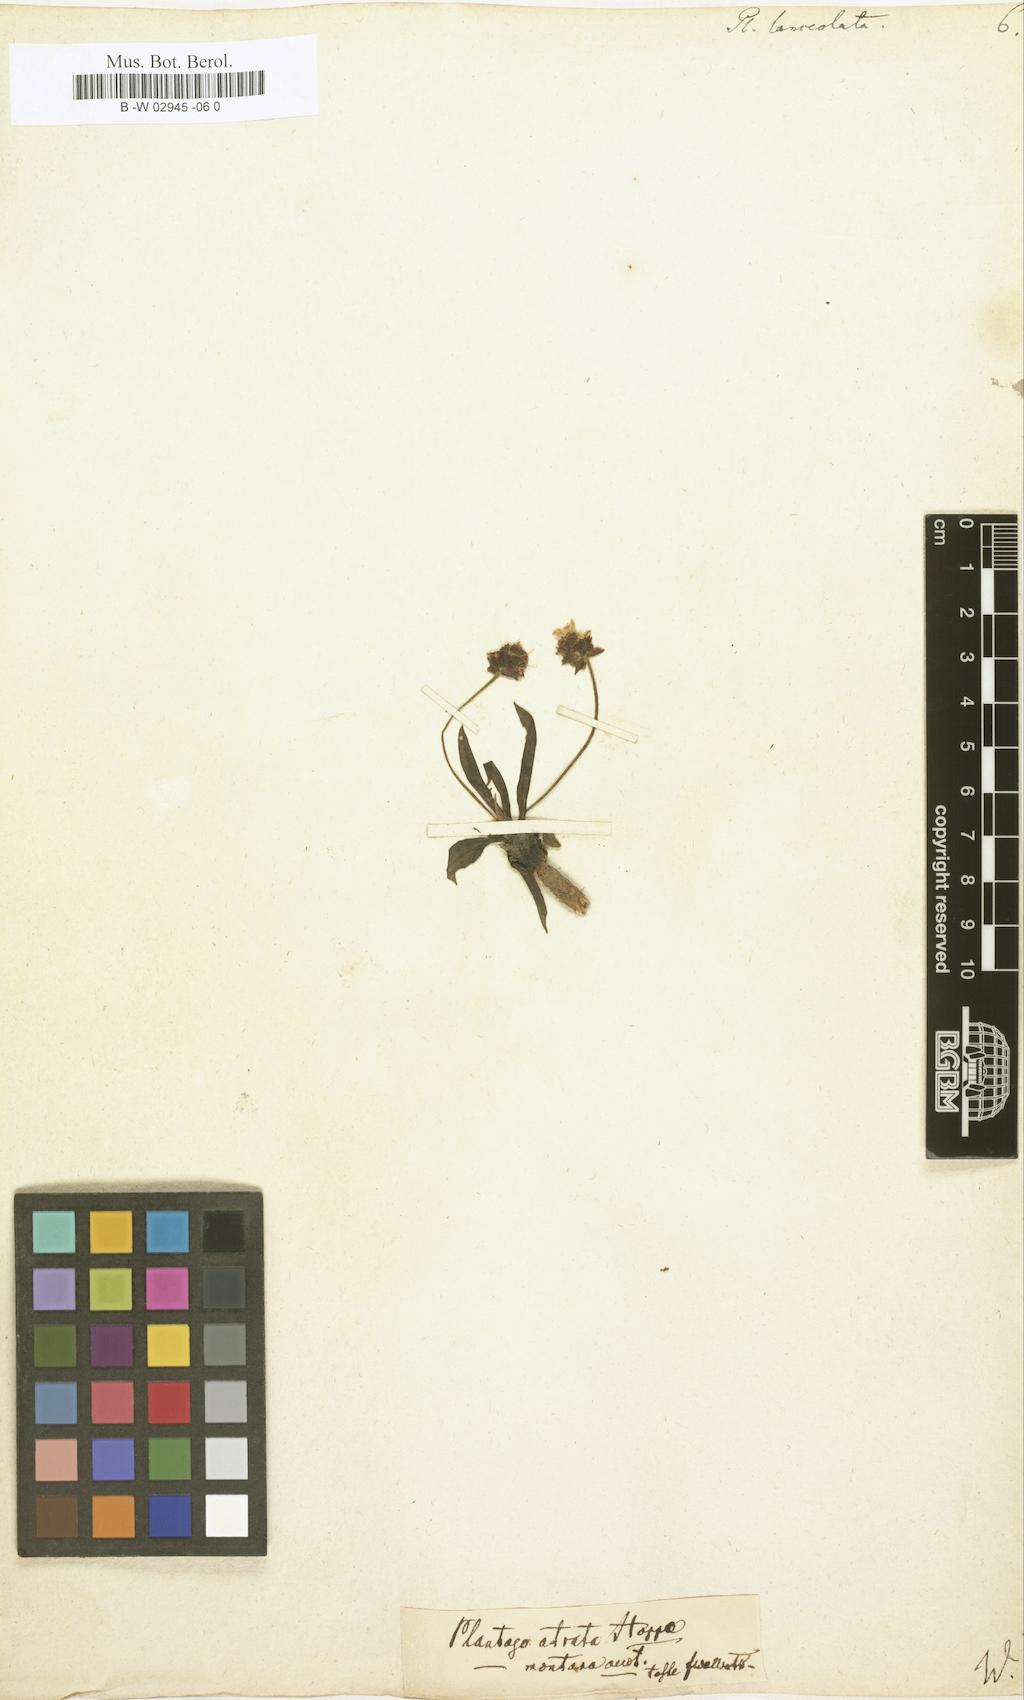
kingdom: Plantae
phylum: Tracheophyta
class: Magnoliopsida
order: Lamiales
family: Plantaginaceae
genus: Plantago
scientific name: Plantago lanceolata
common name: Ribwort plantain
